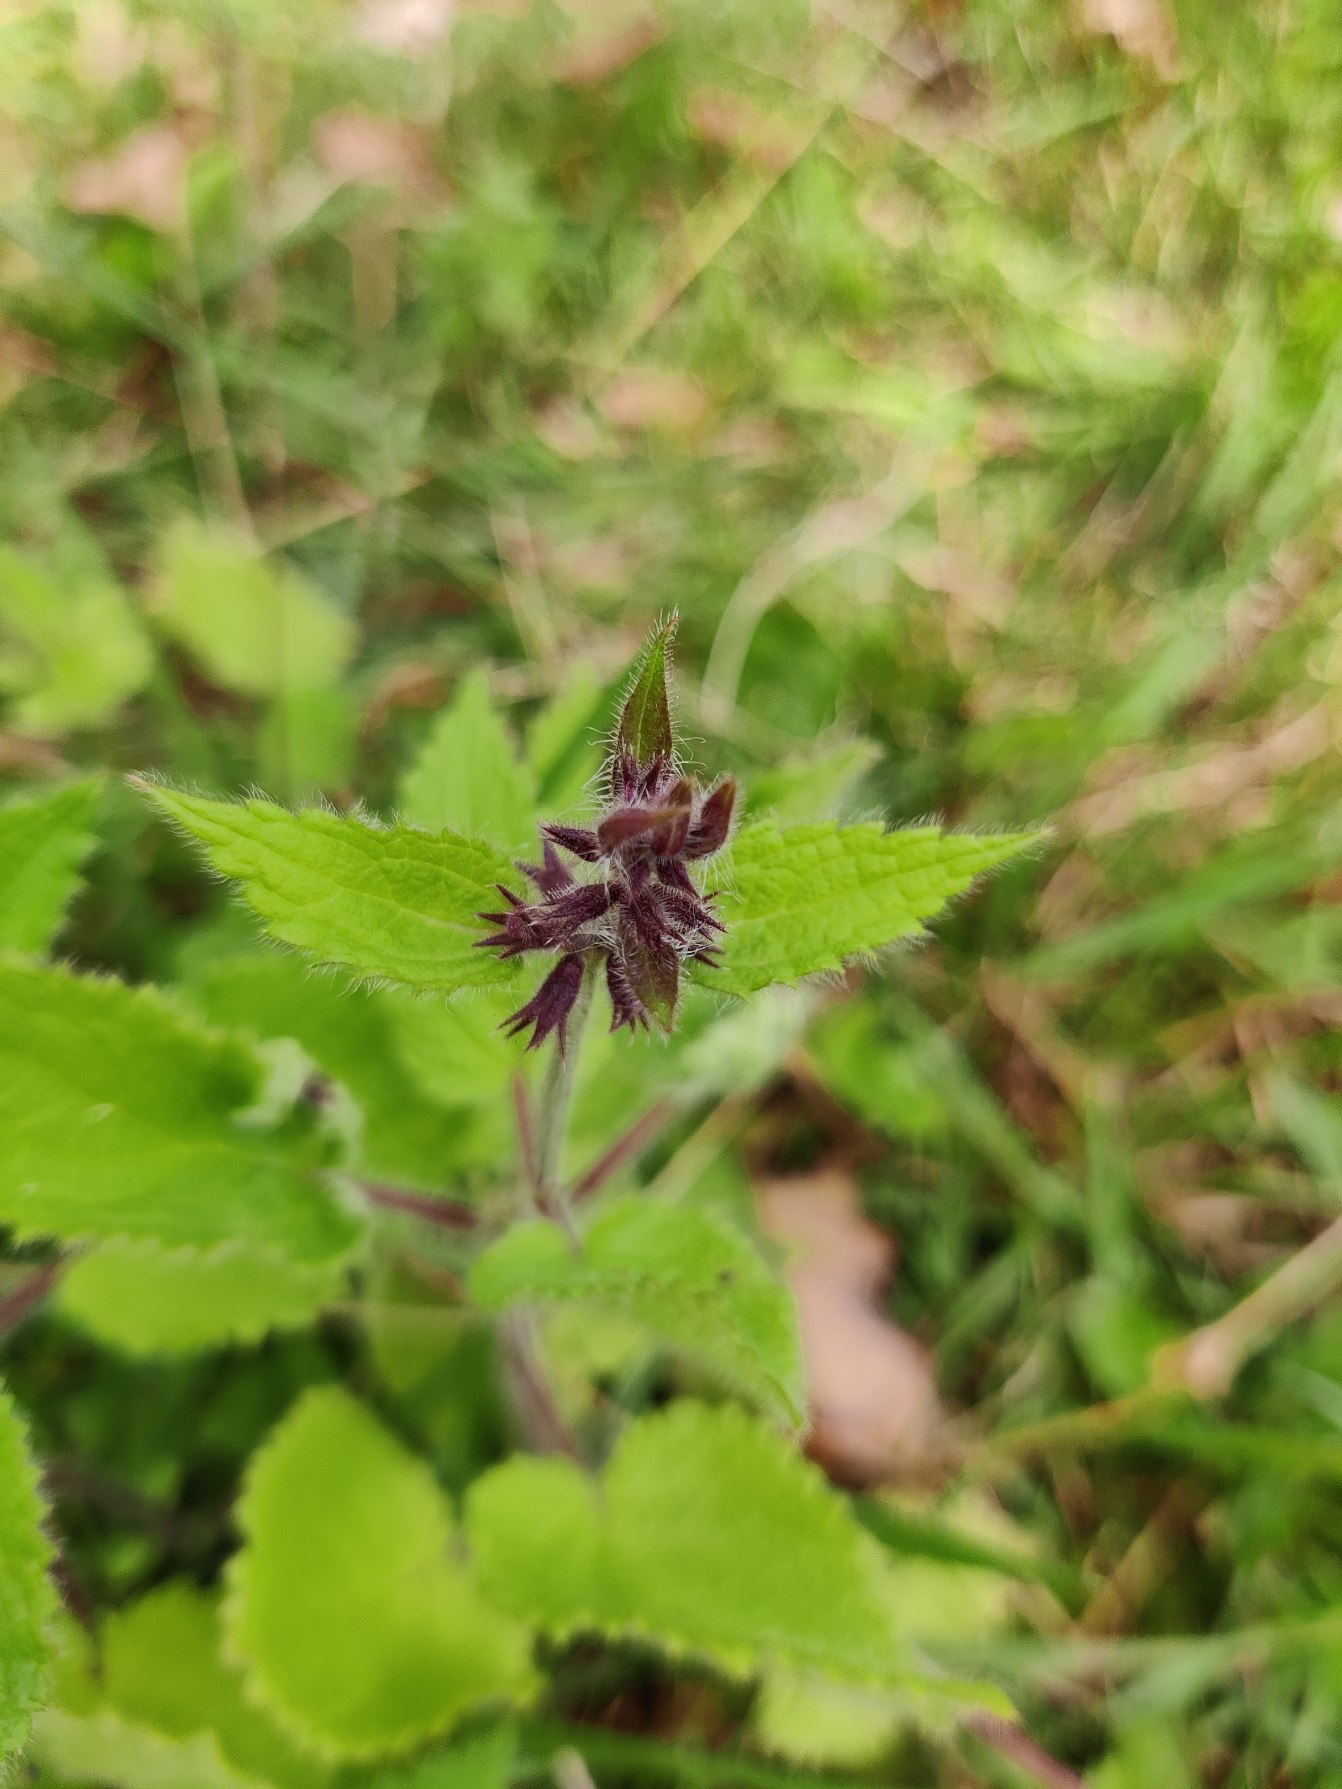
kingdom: Plantae
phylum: Tracheophyta
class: Magnoliopsida
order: Lamiales
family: Lamiaceae
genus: Stachys
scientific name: Stachys sylvatica
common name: Skov-galtetand
